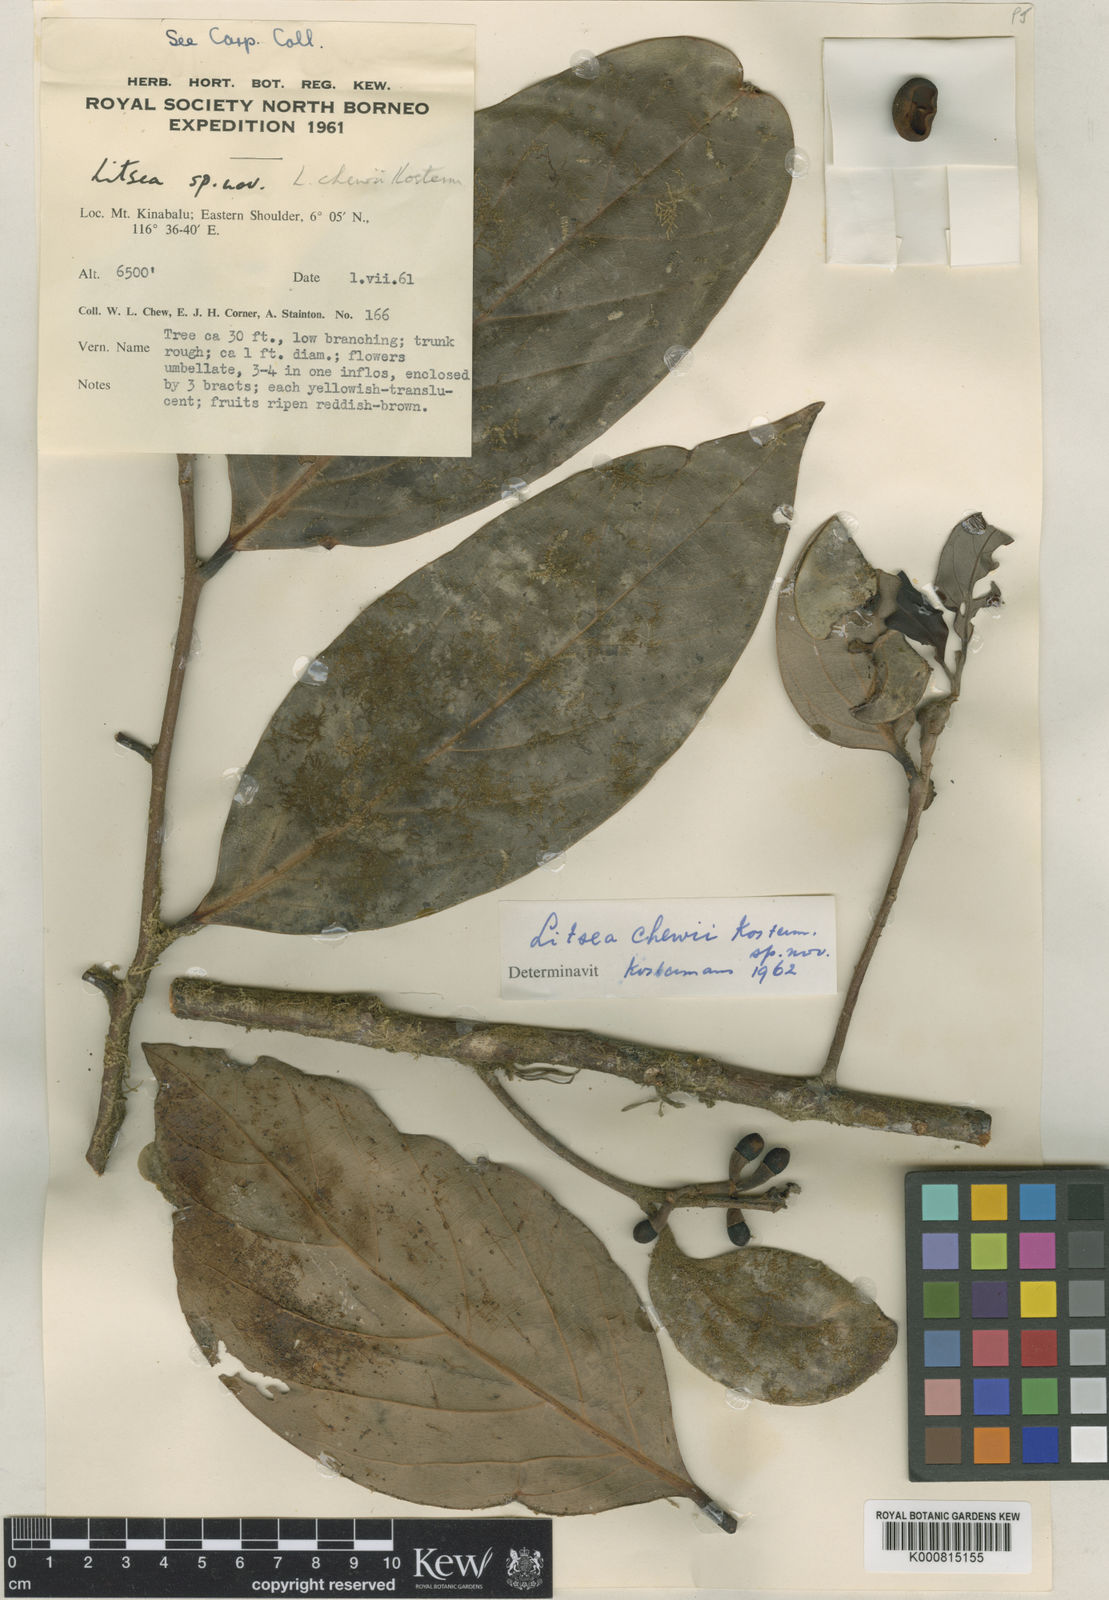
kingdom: Plantae
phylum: Tracheophyta
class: Magnoliopsida
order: Laurales
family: Lauraceae
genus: Litsea
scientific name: Litsea chewii
